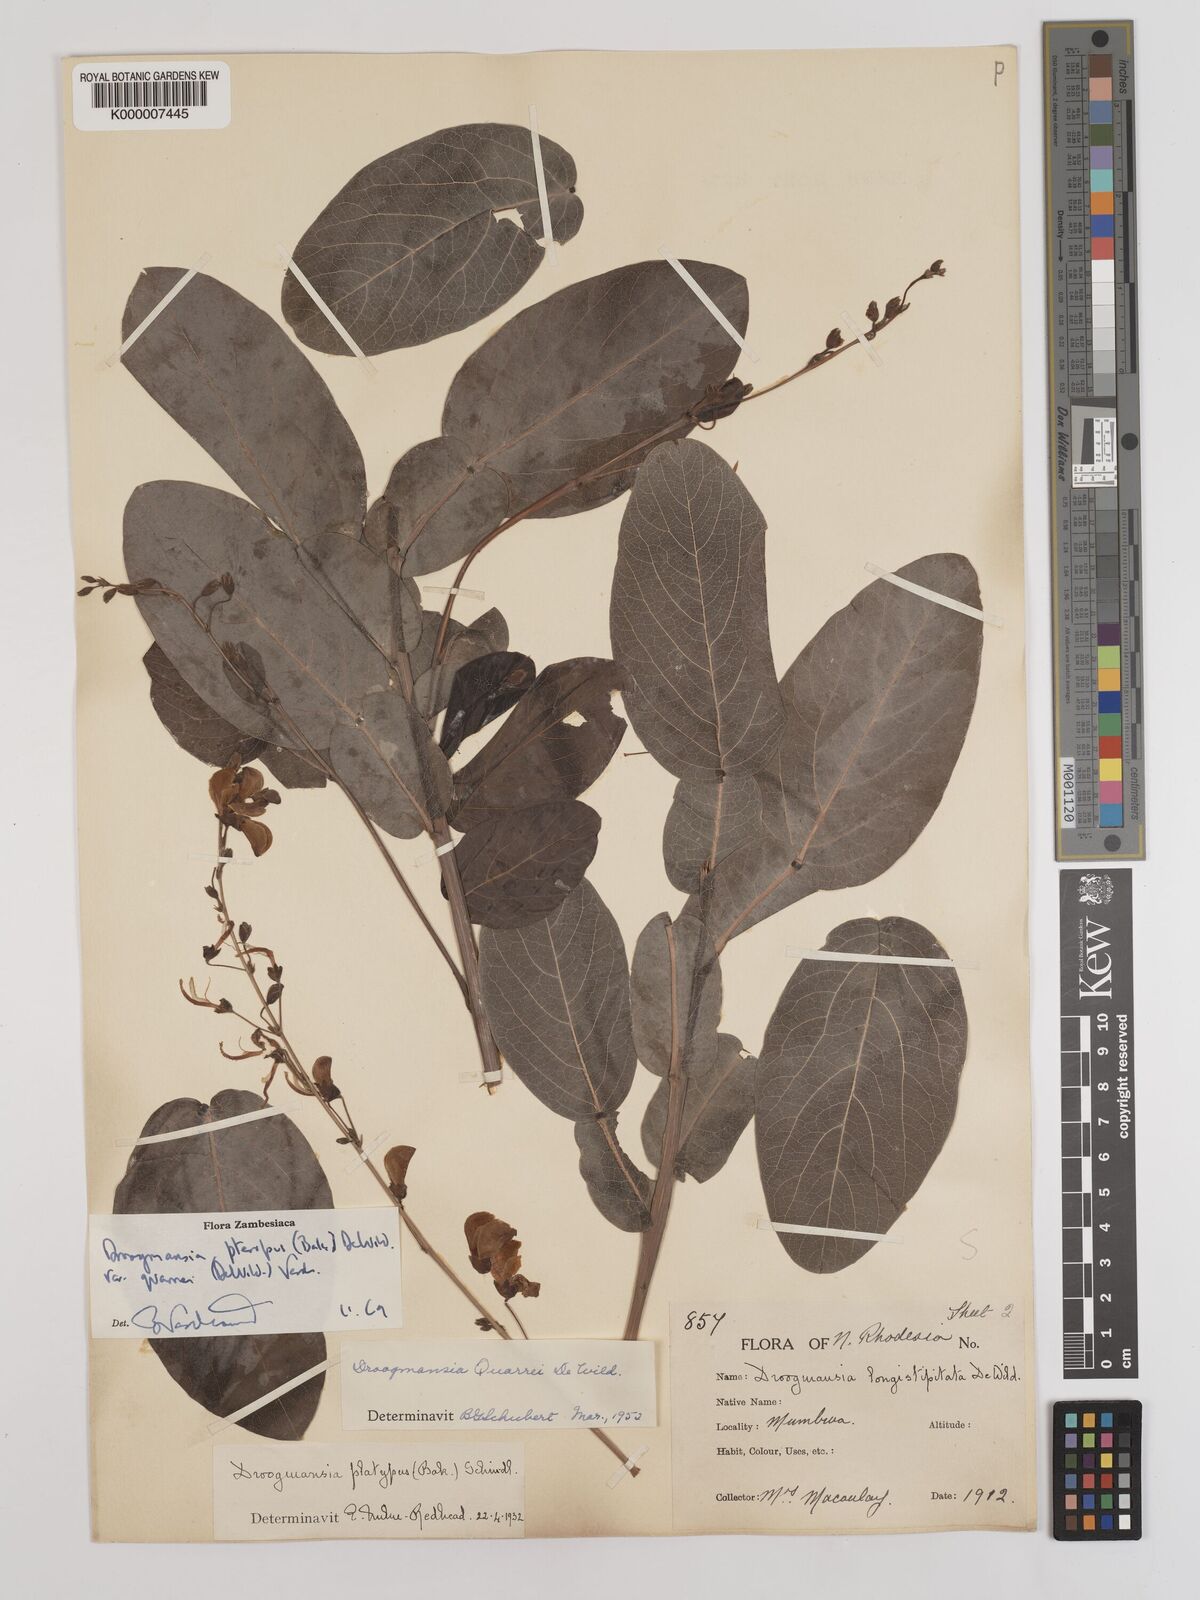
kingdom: Plantae
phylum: Tracheophyta
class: Magnoliopsida
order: Fabales
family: Fabaceae
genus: Droogmansia
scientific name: Droogmansia pteropus
